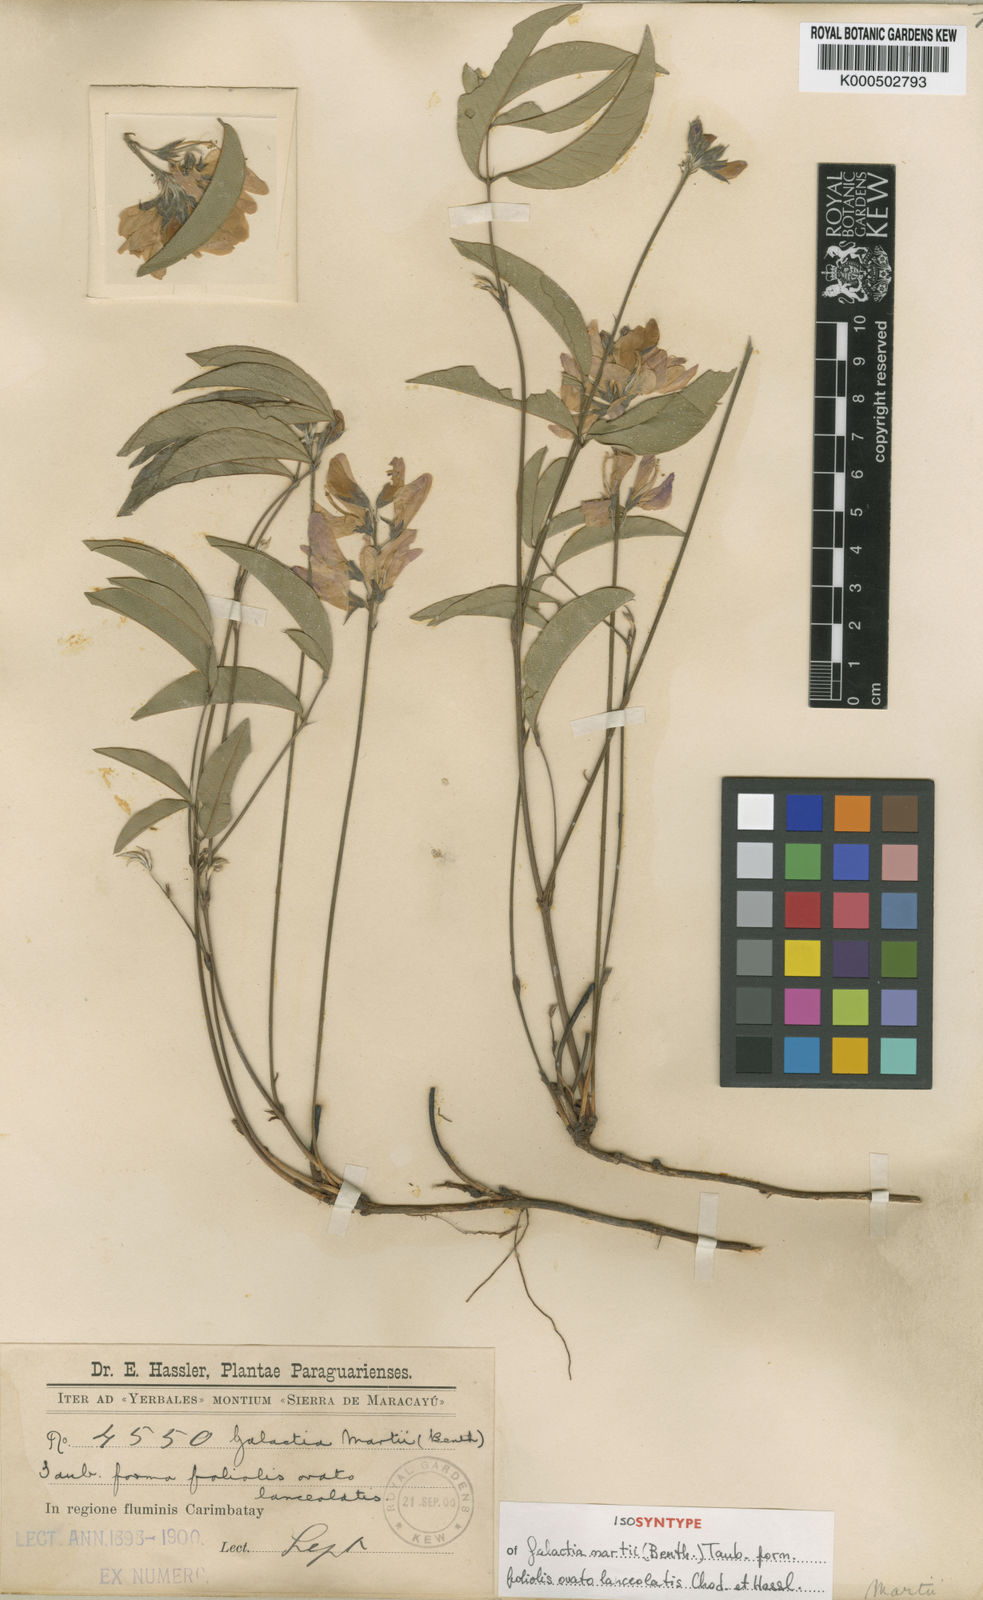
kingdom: Plantae
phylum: Tracheophyta
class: Magnoliopsida
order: Fabales
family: Fabaceae
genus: Betencourtia
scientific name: Betencourtia neesii
